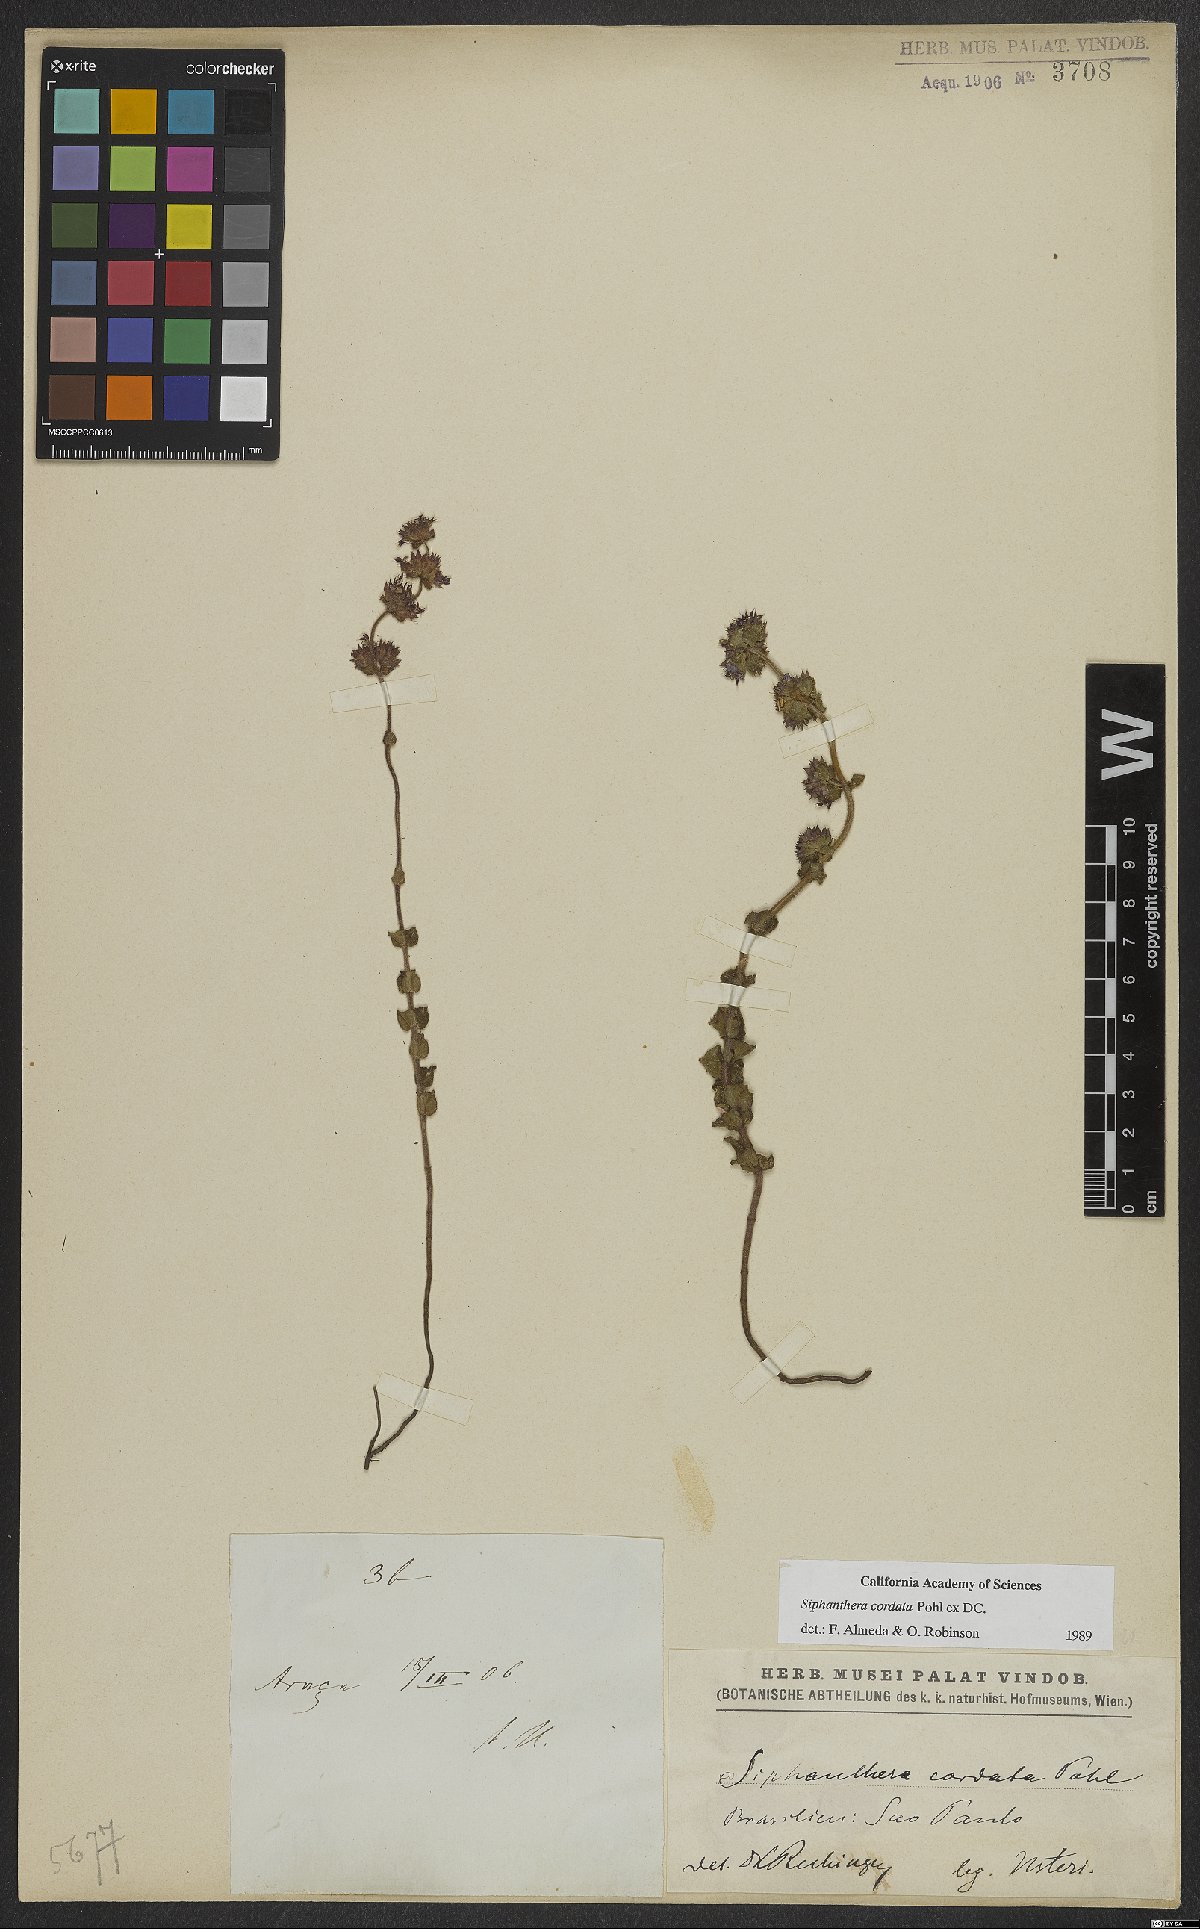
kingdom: Plantae
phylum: Tracheophyta
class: Magnoliopsida
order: Myrtales
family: Melastomataceae
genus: Siphanthera
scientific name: Siphanthera cordata
